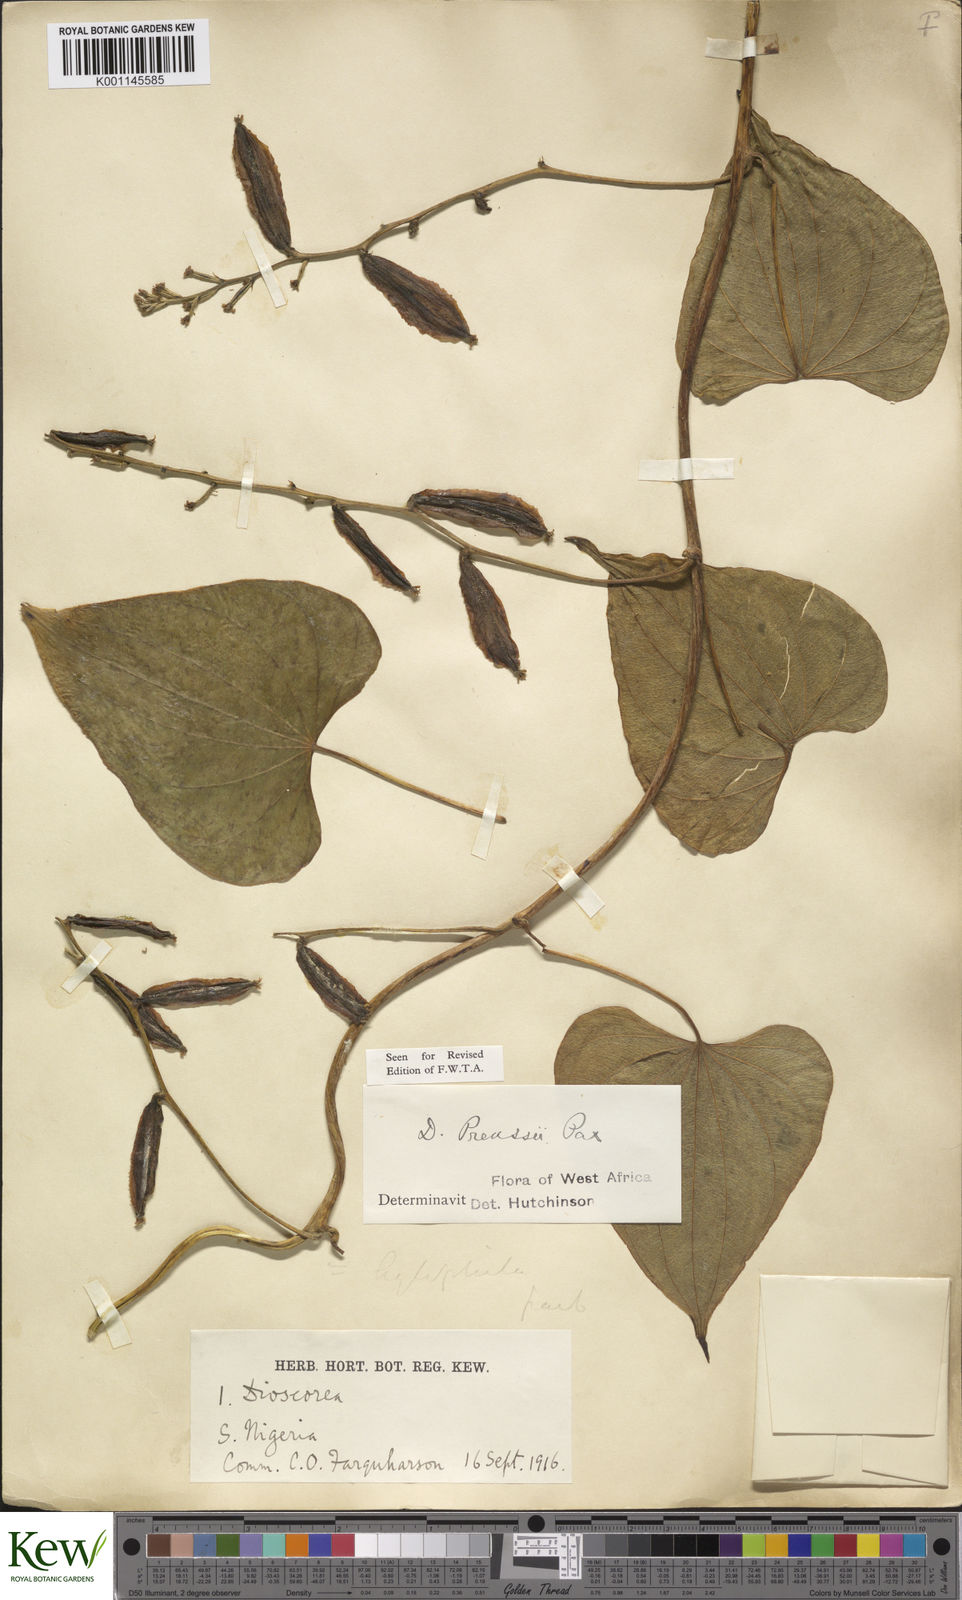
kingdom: Plantae
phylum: Tracheophyta
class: Liliopsida
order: Dioscoreales
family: Dioscoreaceae
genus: Dioscorea
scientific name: Dioscorea preussii
